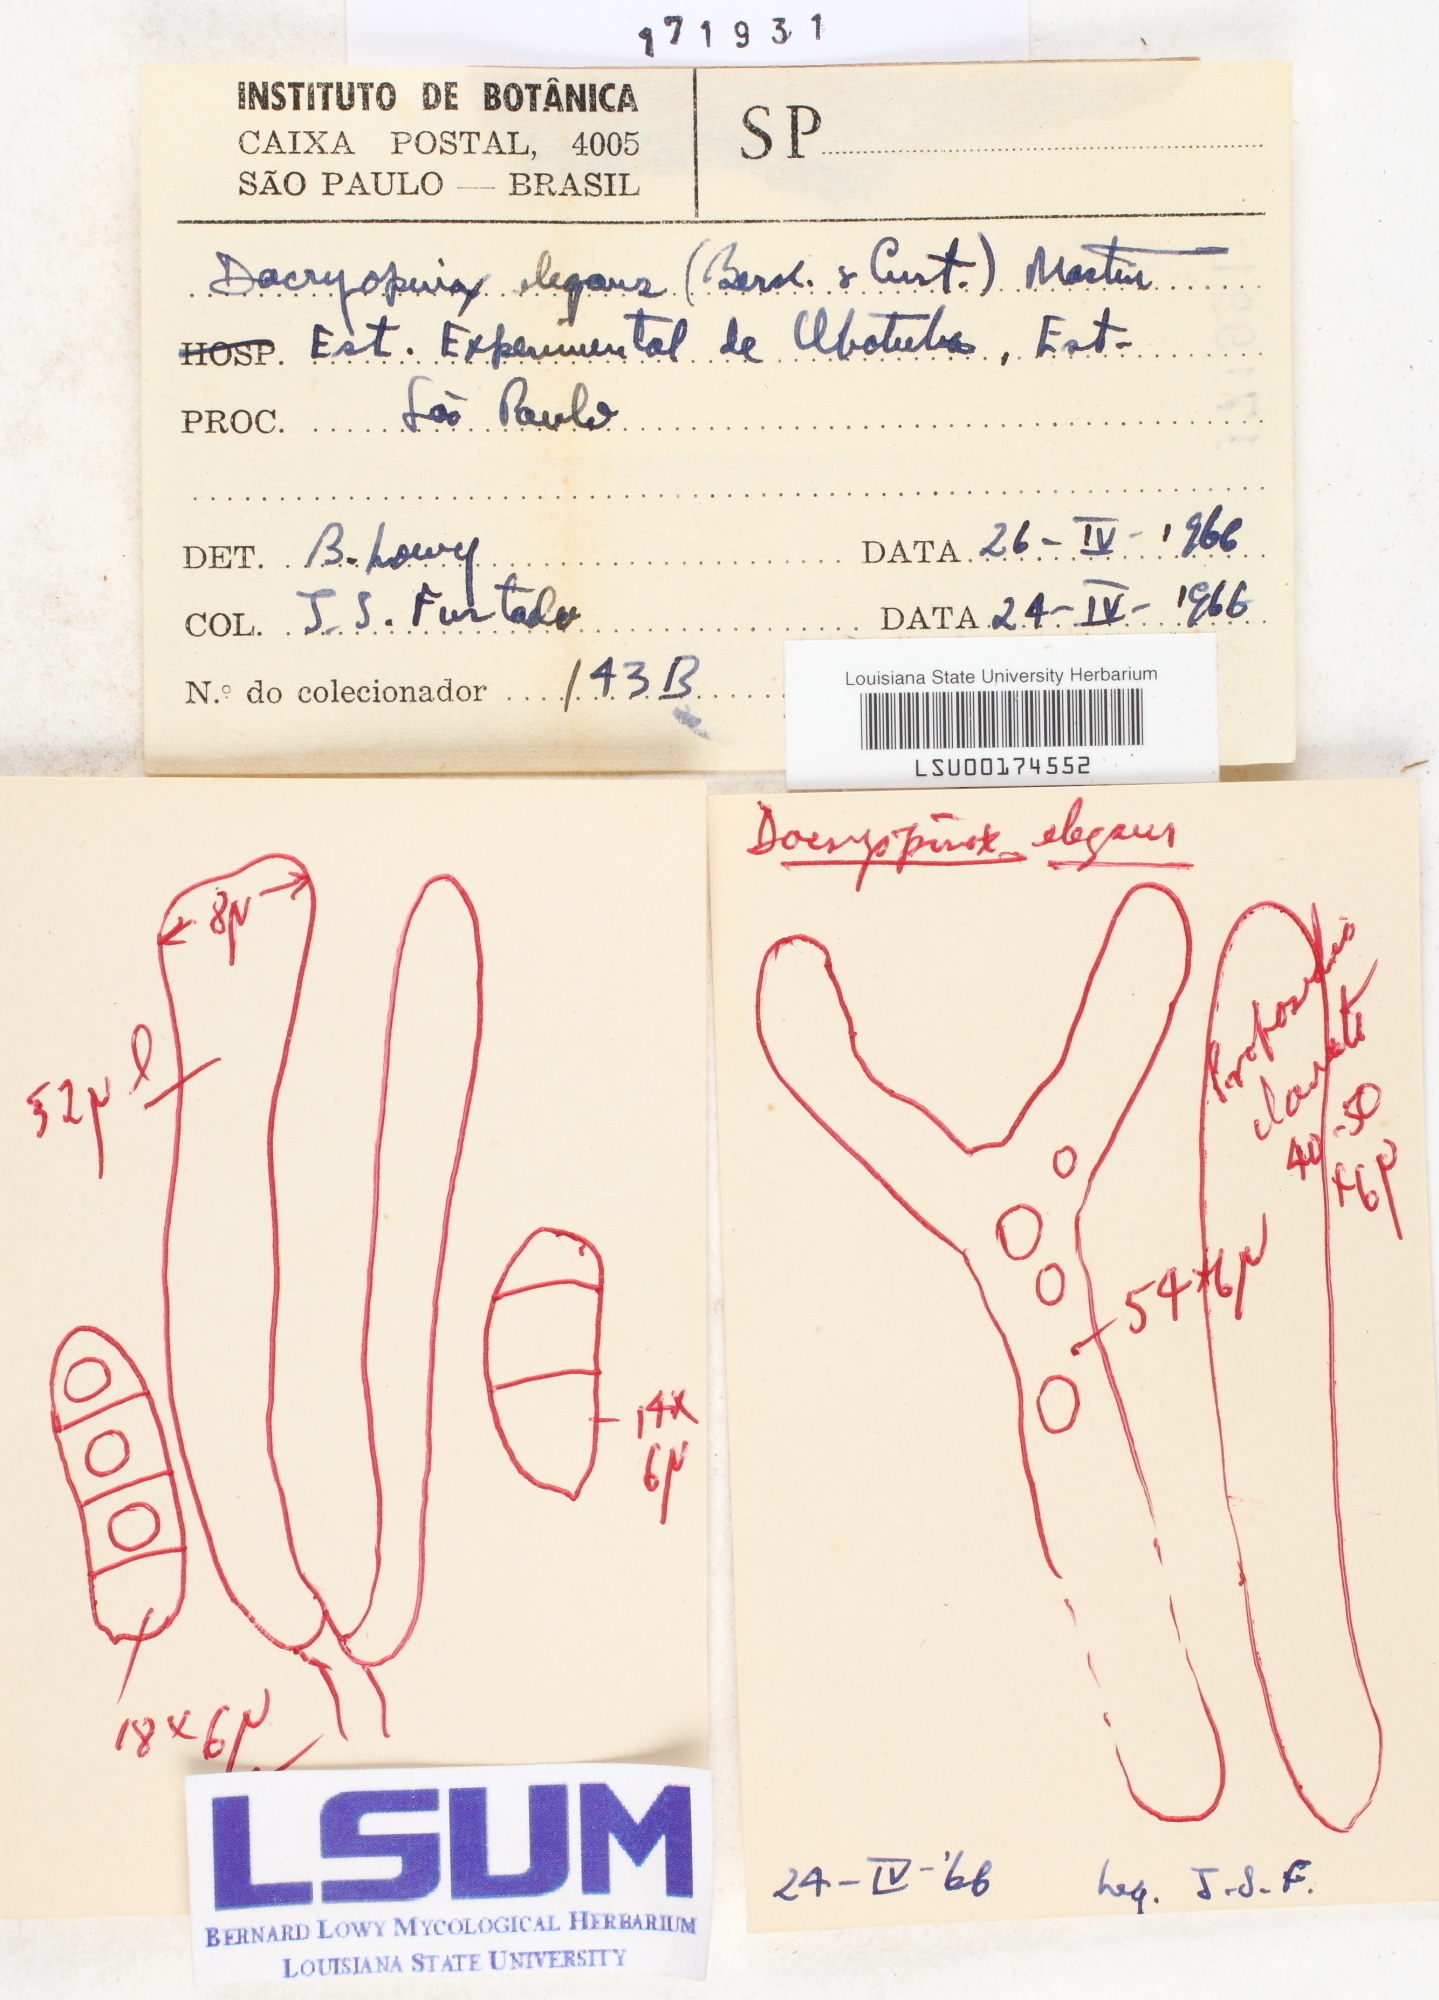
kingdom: Fungi
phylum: Basidiomycota
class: Dacrymycetes
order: Dacrymycetales
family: Dacrymycetaceae
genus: Dacryopinax
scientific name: Dacryopinax elegans
